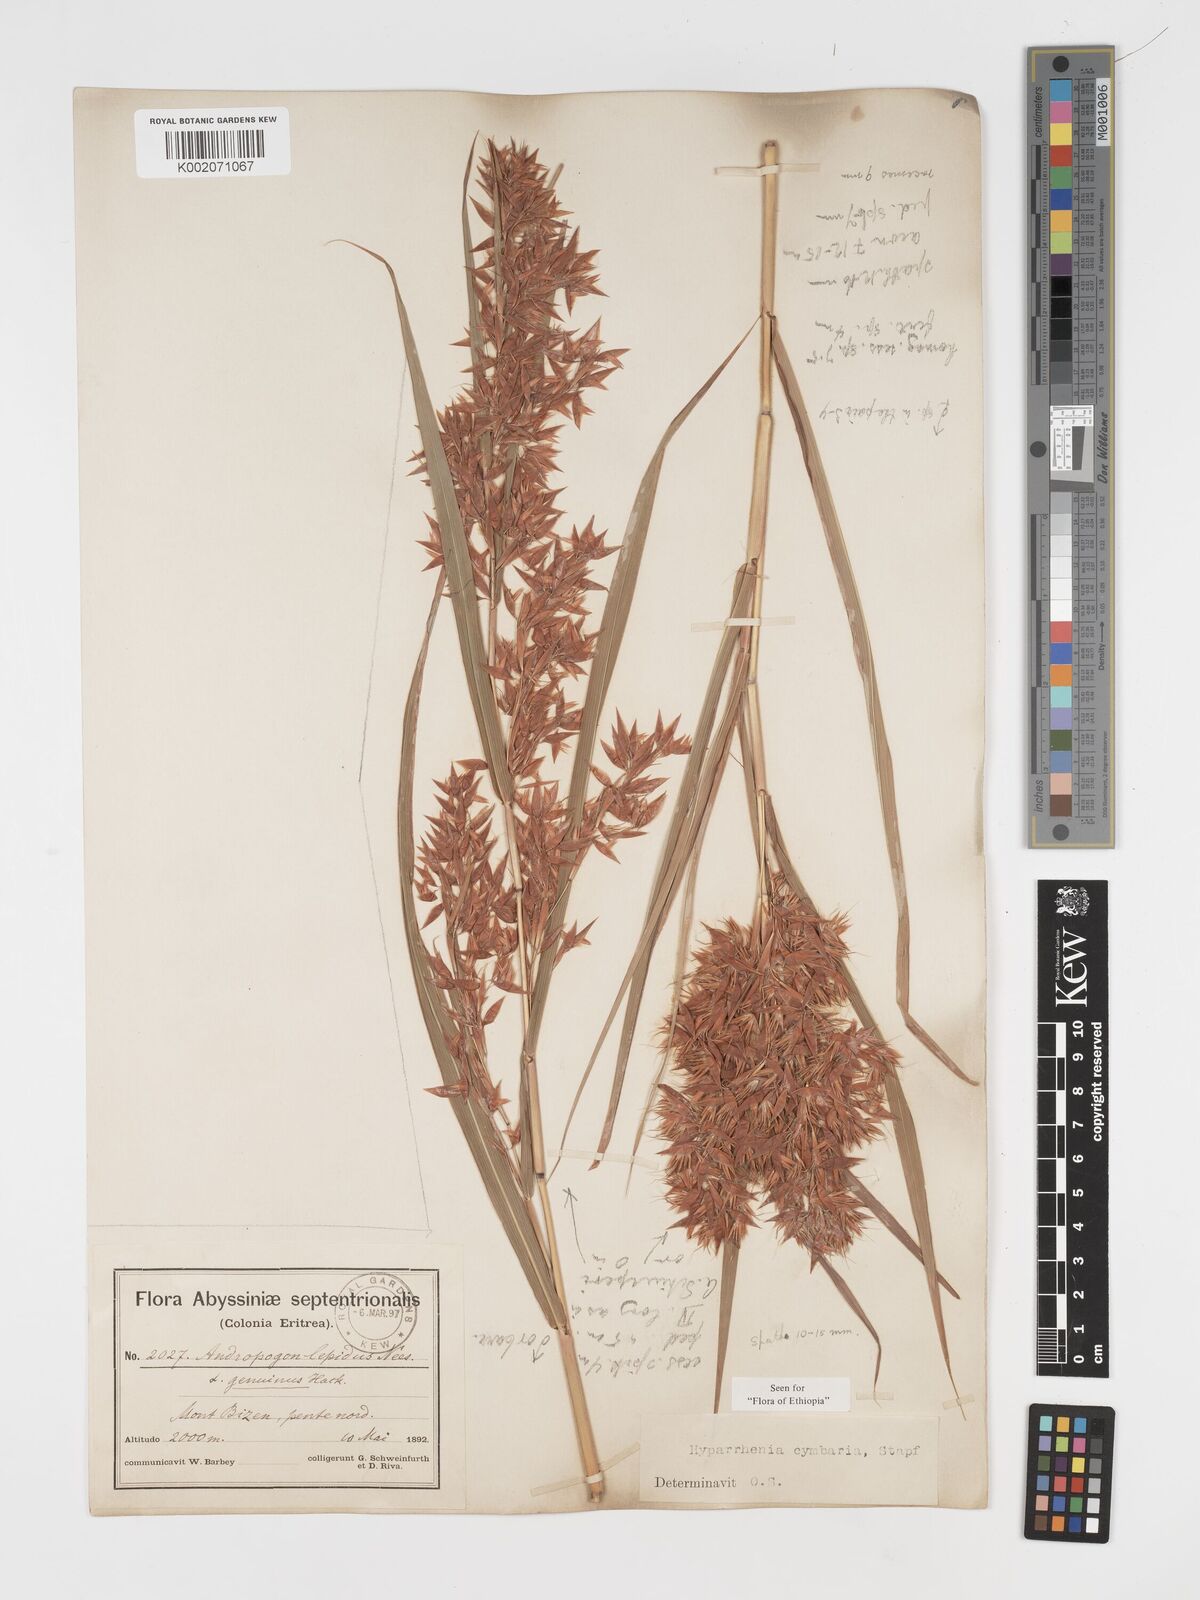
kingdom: Plantae
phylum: Tracheophyta
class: Liliopsida
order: Poales
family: Poaceae
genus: Hyparrhenia
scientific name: Hyparrhenia cymbaria
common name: Boat thatching grass
